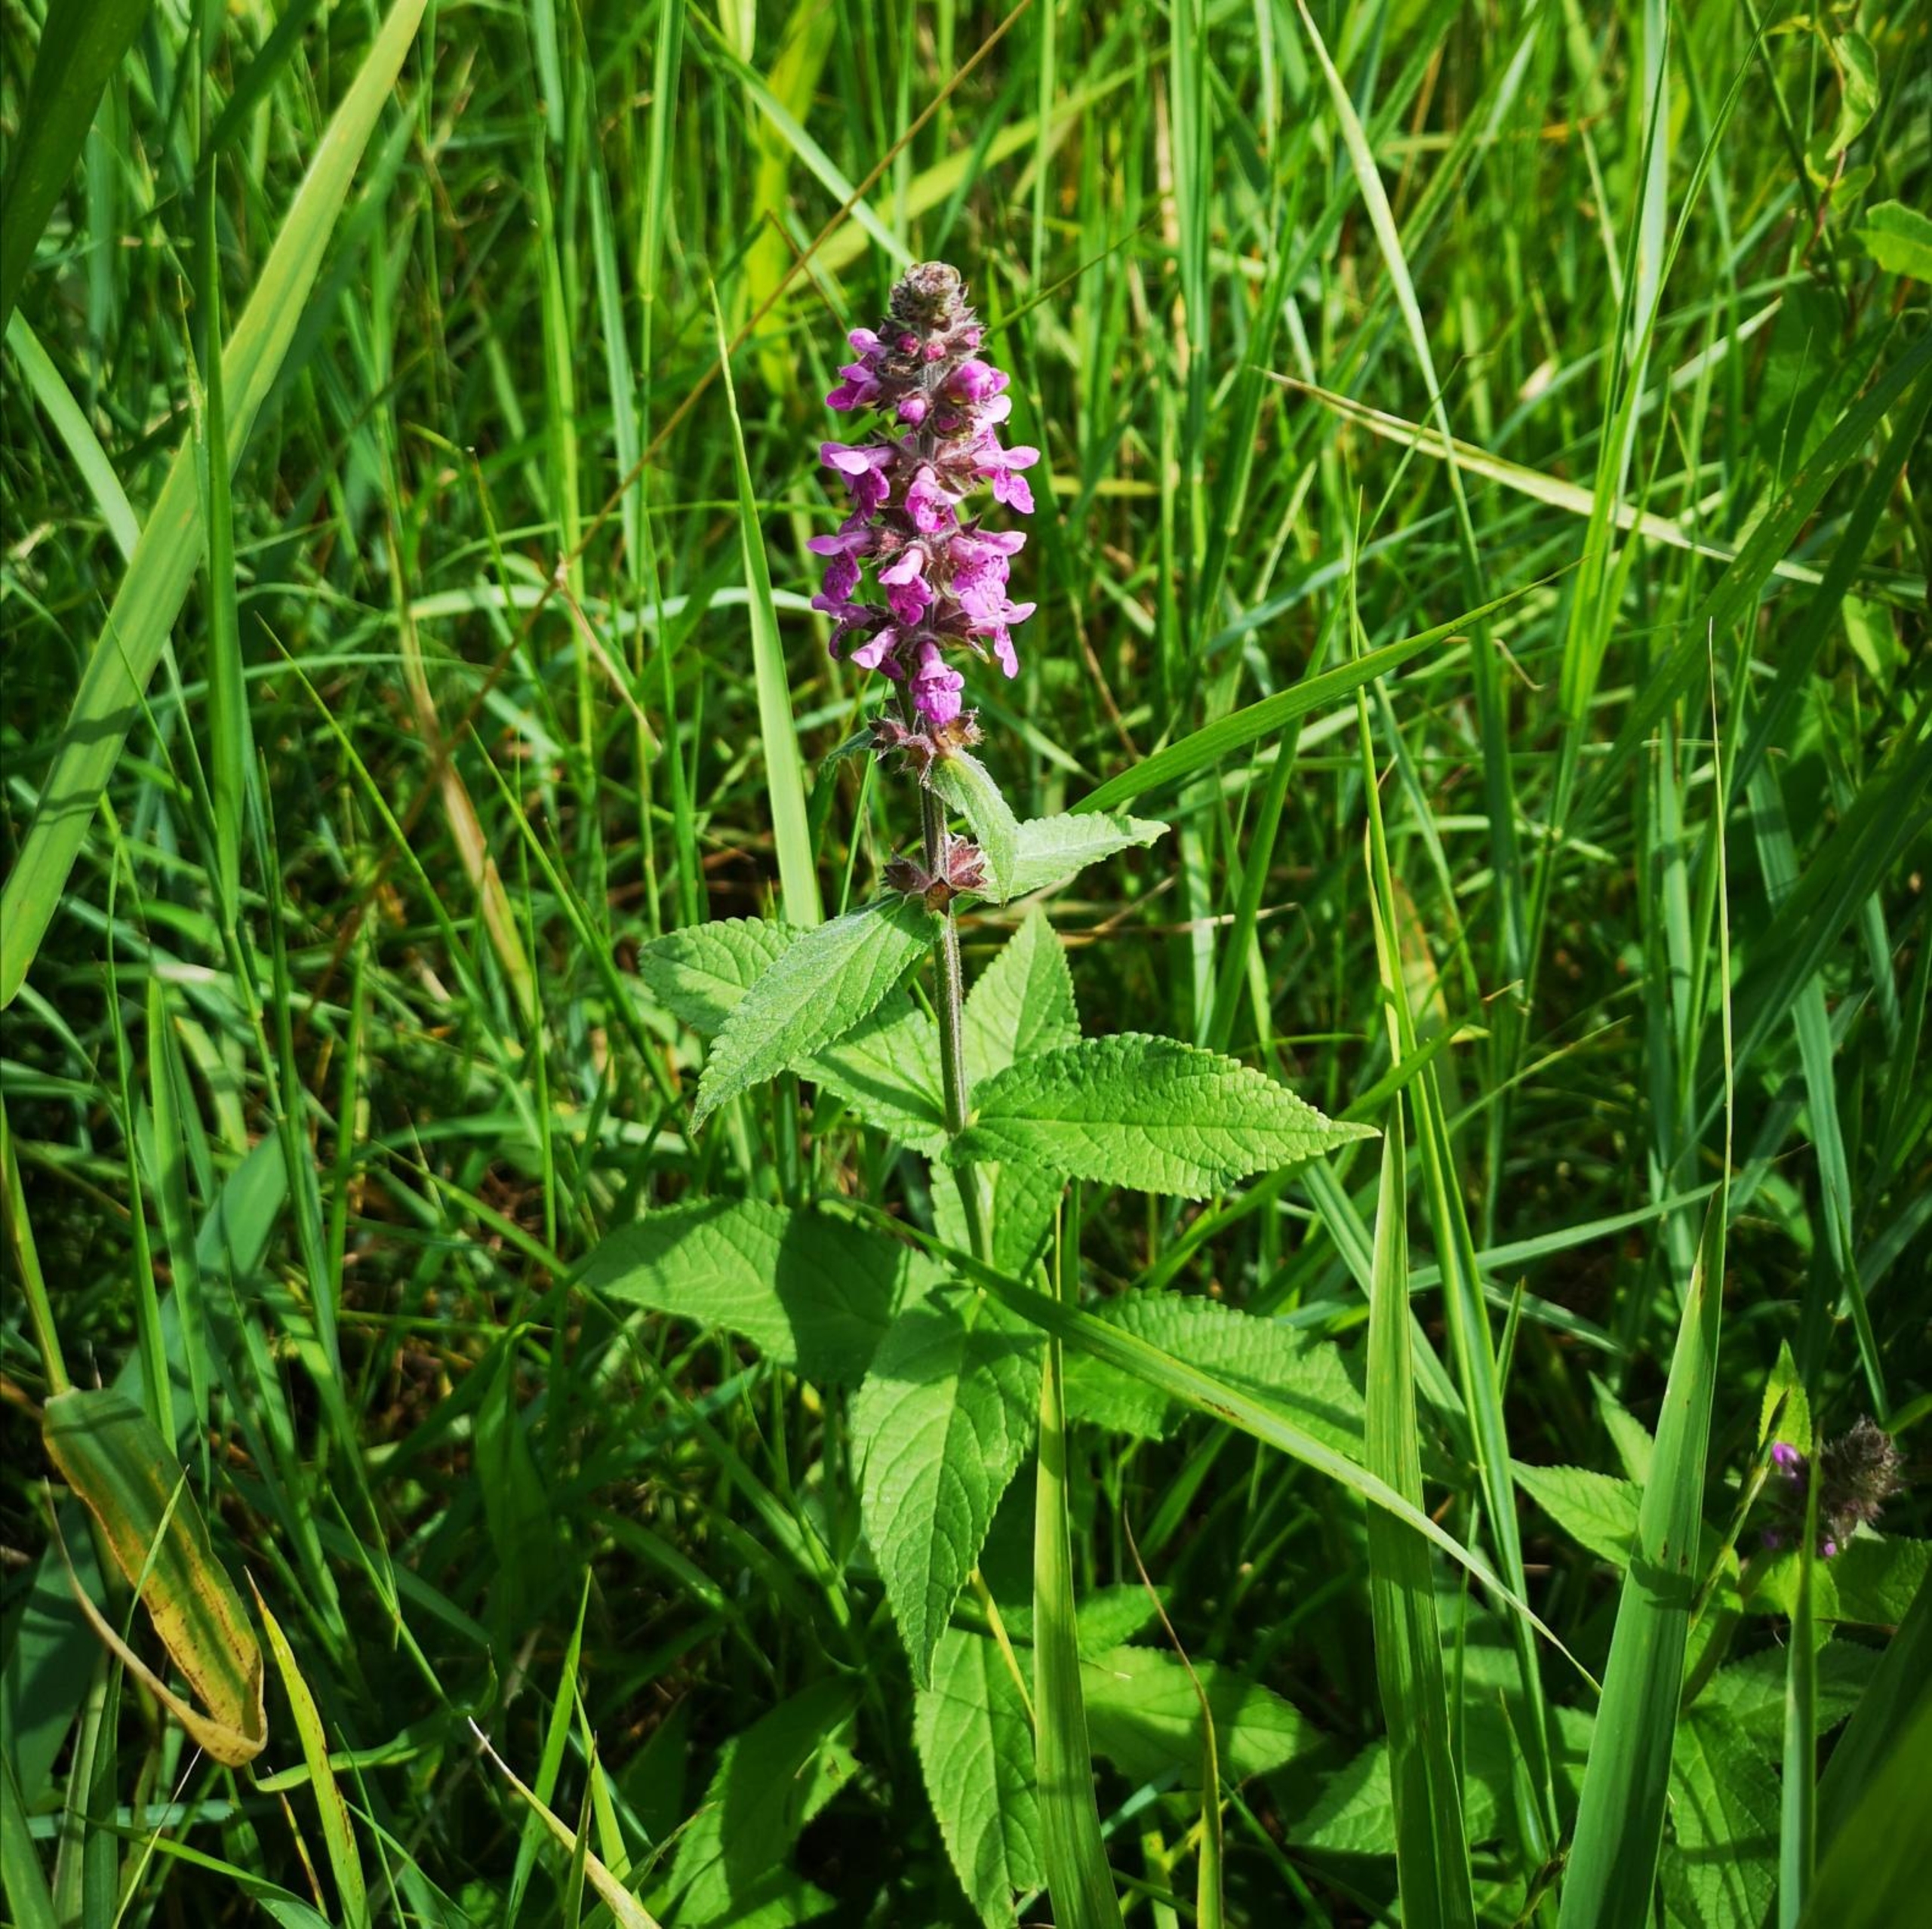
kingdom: Plantae
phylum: Tracheophyta
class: Magnoliopsida
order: Lamiales
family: Lamiaceae
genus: Stachys
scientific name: Stachys palustris
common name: Kær-galtetand
